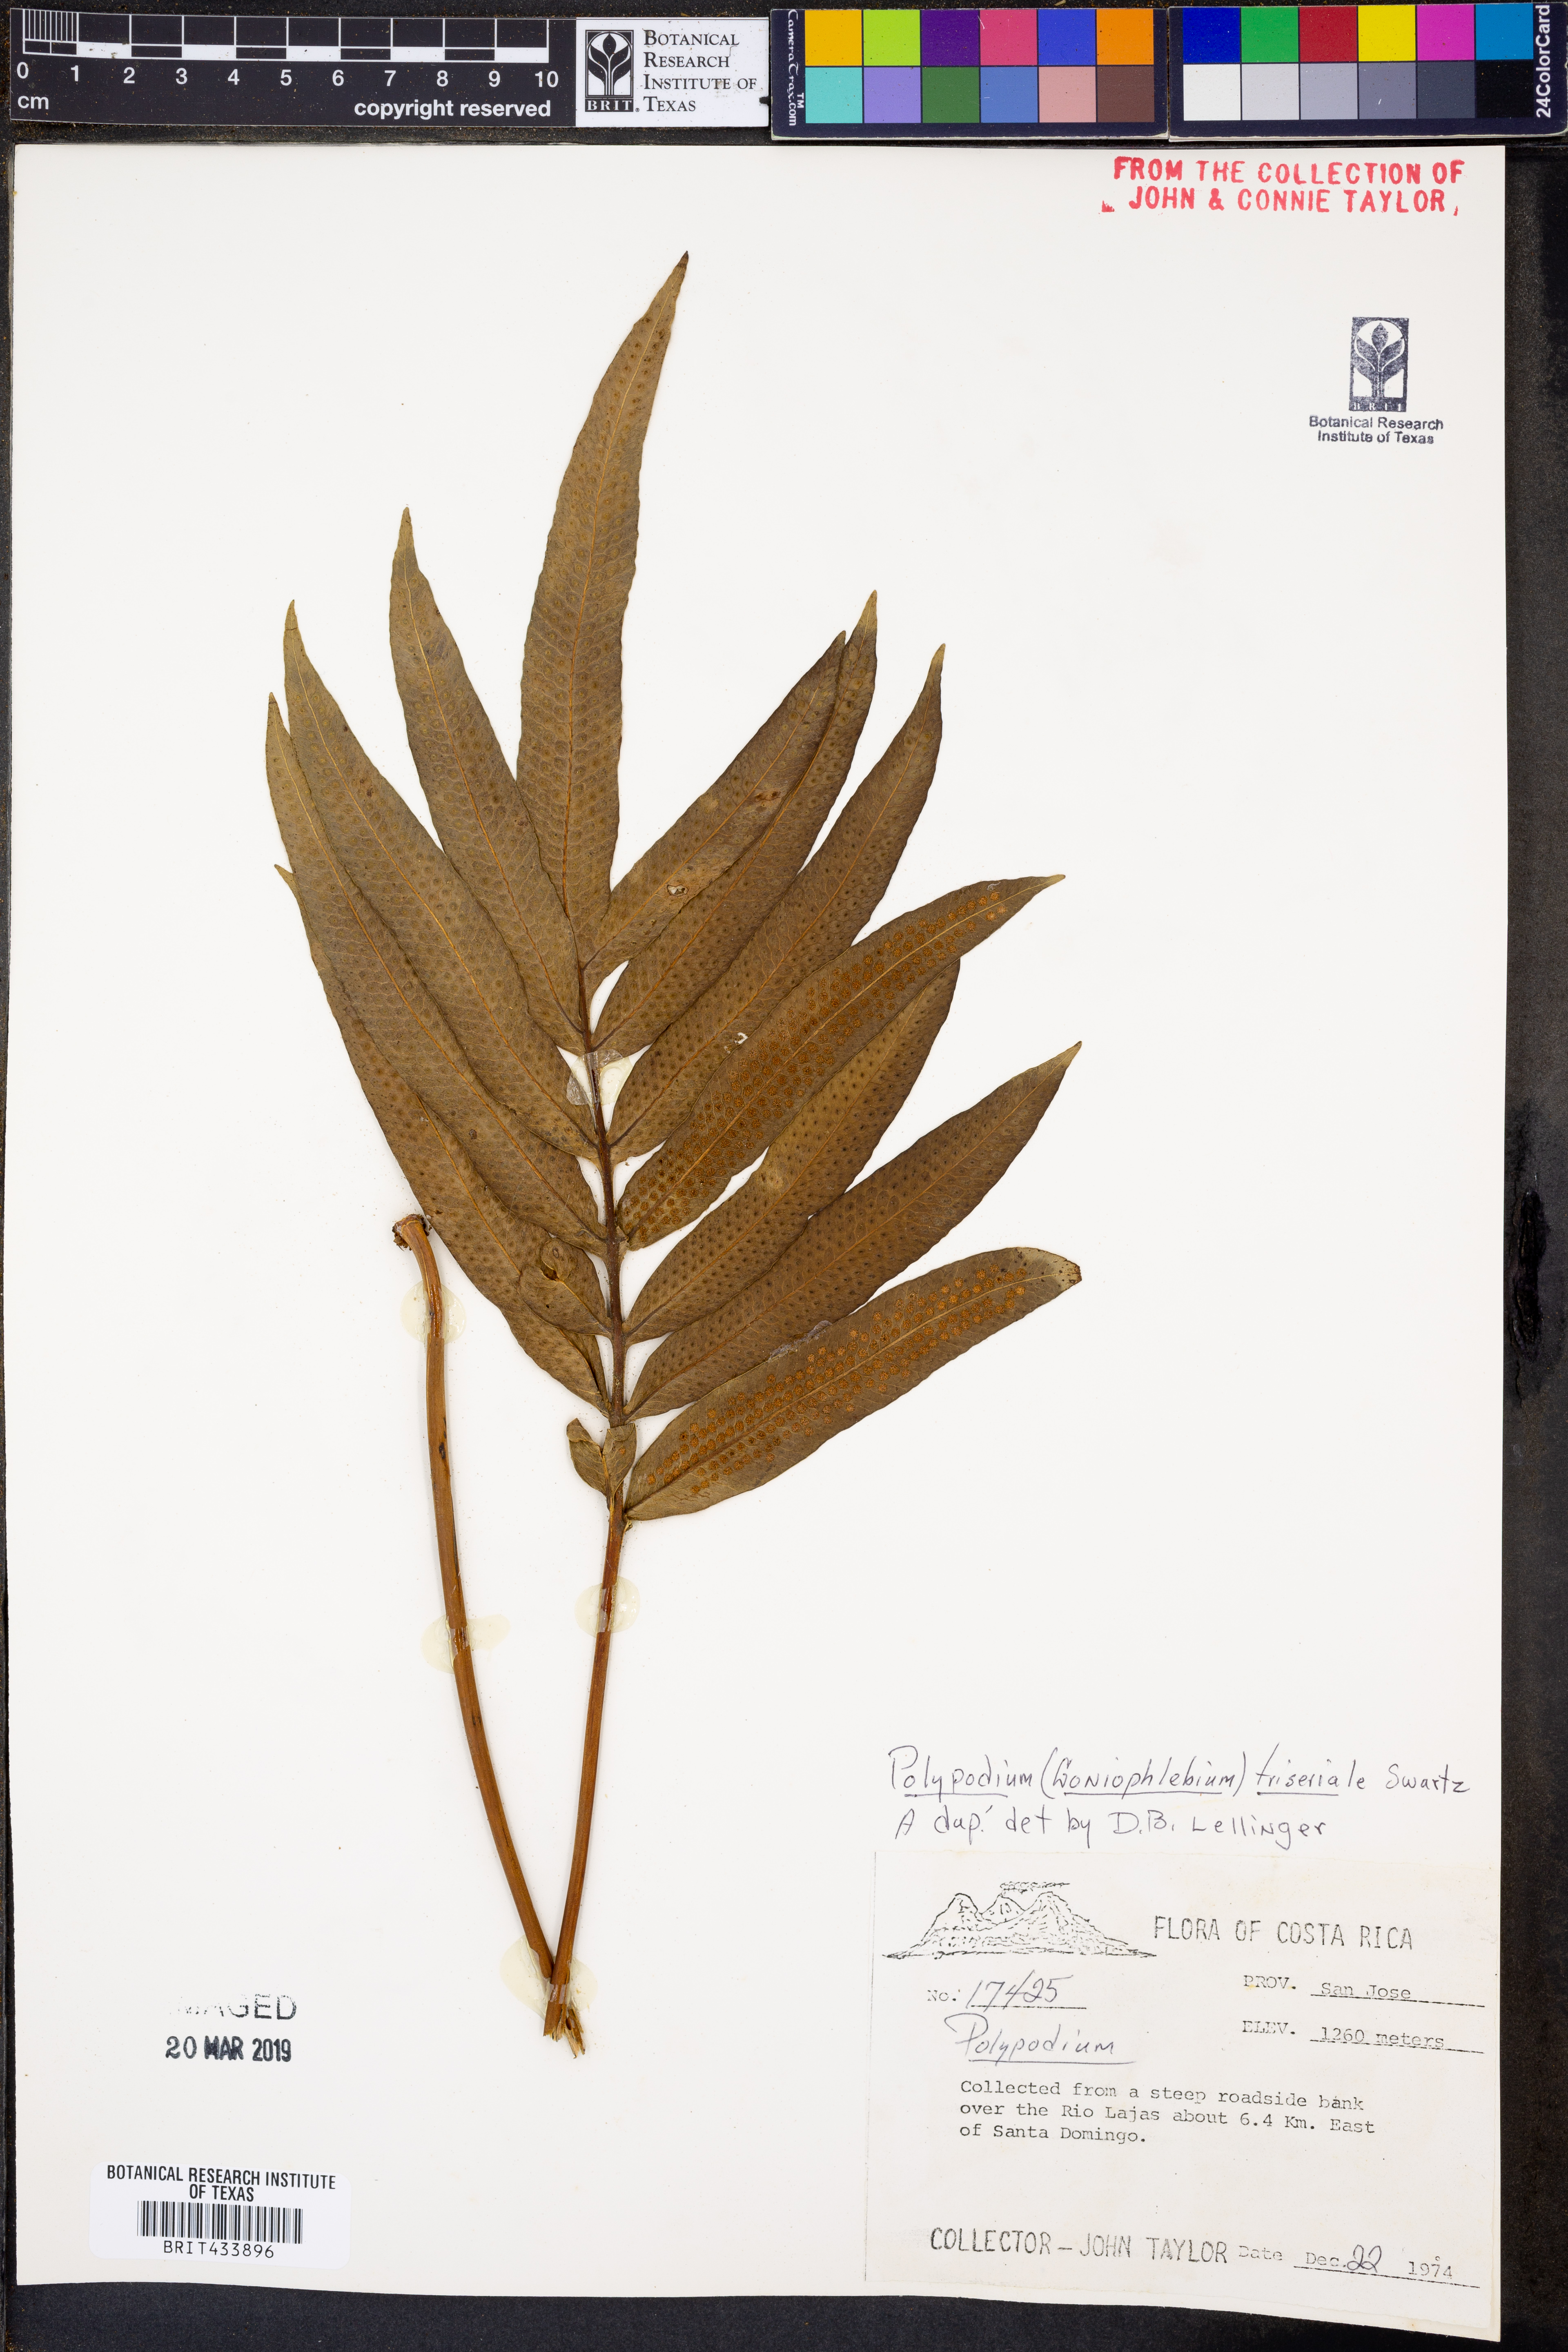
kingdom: Plantae
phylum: Tracheophyta
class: Polypodiopsida
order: Polypodiales
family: Polypodiaceae
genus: Serpocaulon
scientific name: Serpocaulon triseriale
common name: Angle-vein fern
